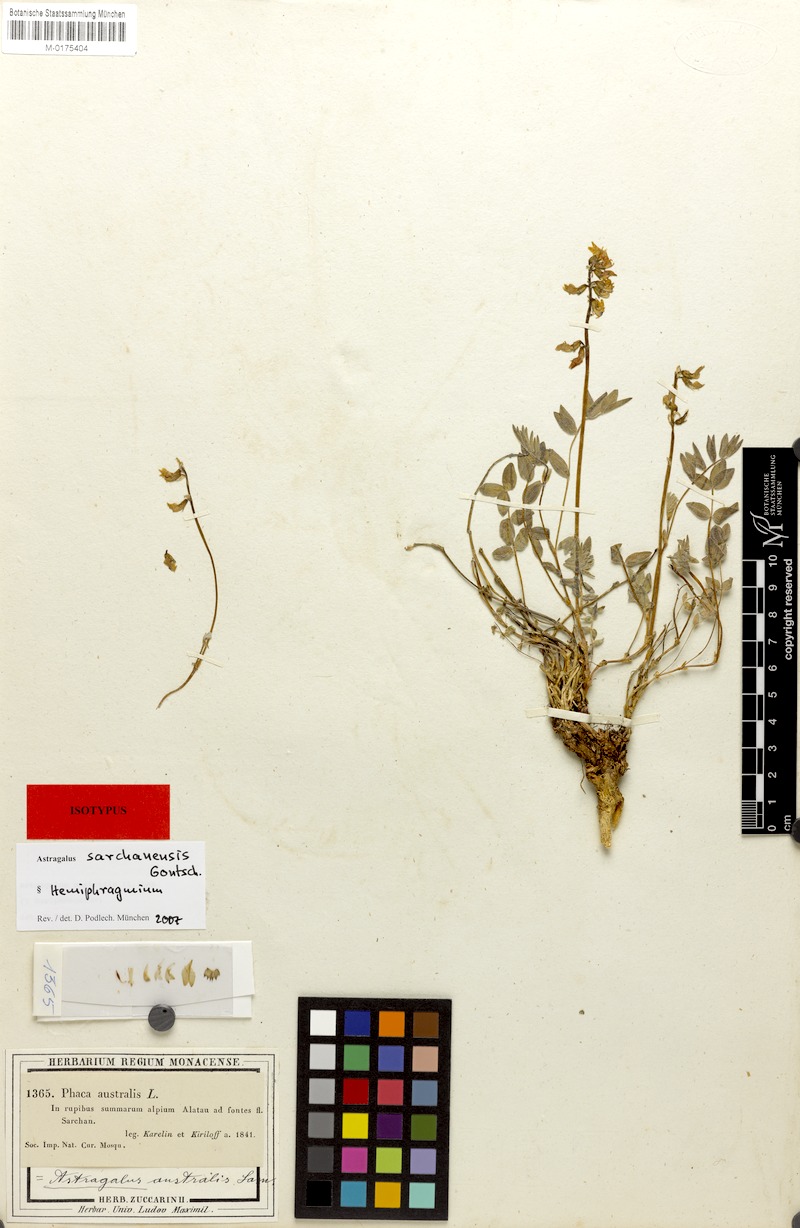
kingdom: Plantae
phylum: Tracheophyta
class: Magnoliopsida
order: Fabales
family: Fabaceae
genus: Astragalus
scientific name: Astragalus sarchanensis
